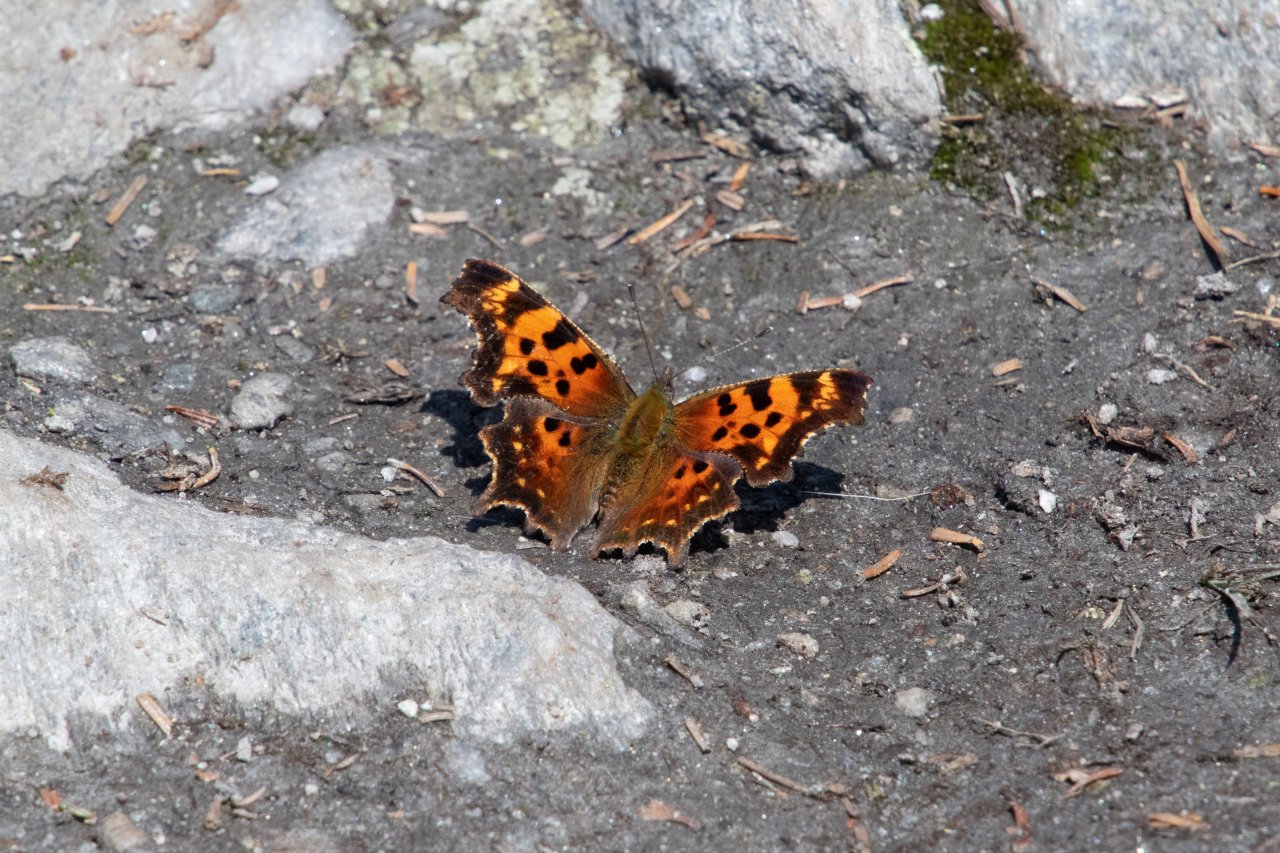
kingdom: Animalia
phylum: Arthropoda
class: Insecta
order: Lepidoptera
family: Nymphalidae
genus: Polygonia
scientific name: Polygonia faunus
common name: Green Comma
